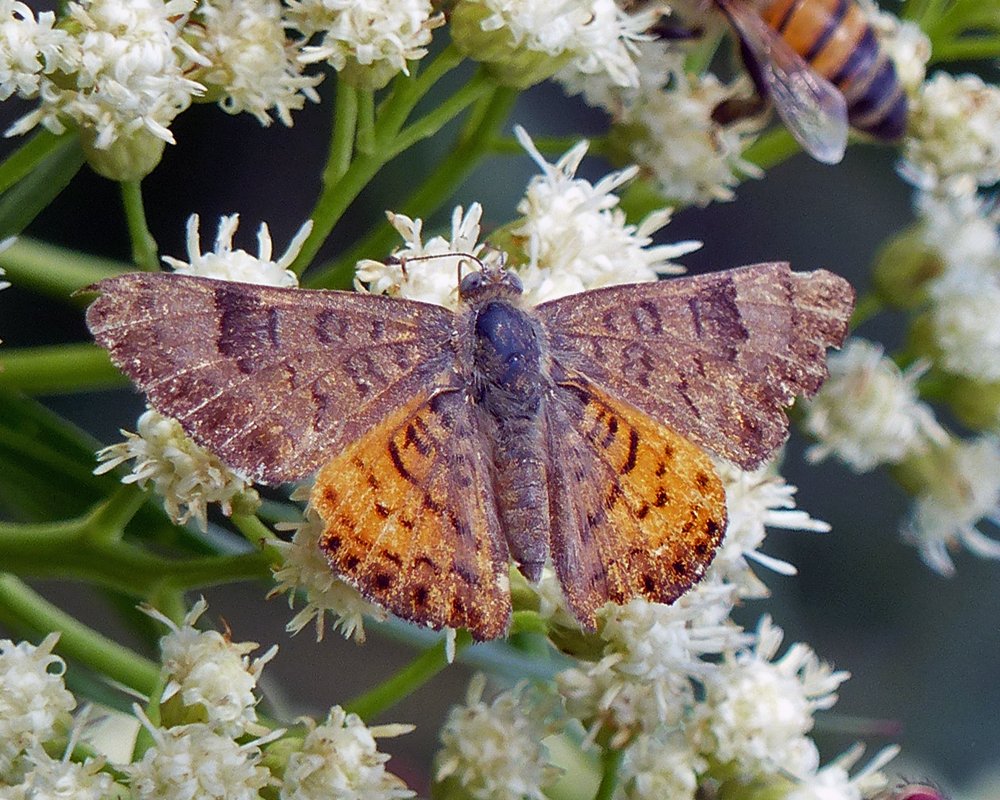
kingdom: Animalia
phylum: Arthropoda
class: Insecta
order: Lepidoptera
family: Lycaenidae
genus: Emesis
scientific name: Emesis zela
